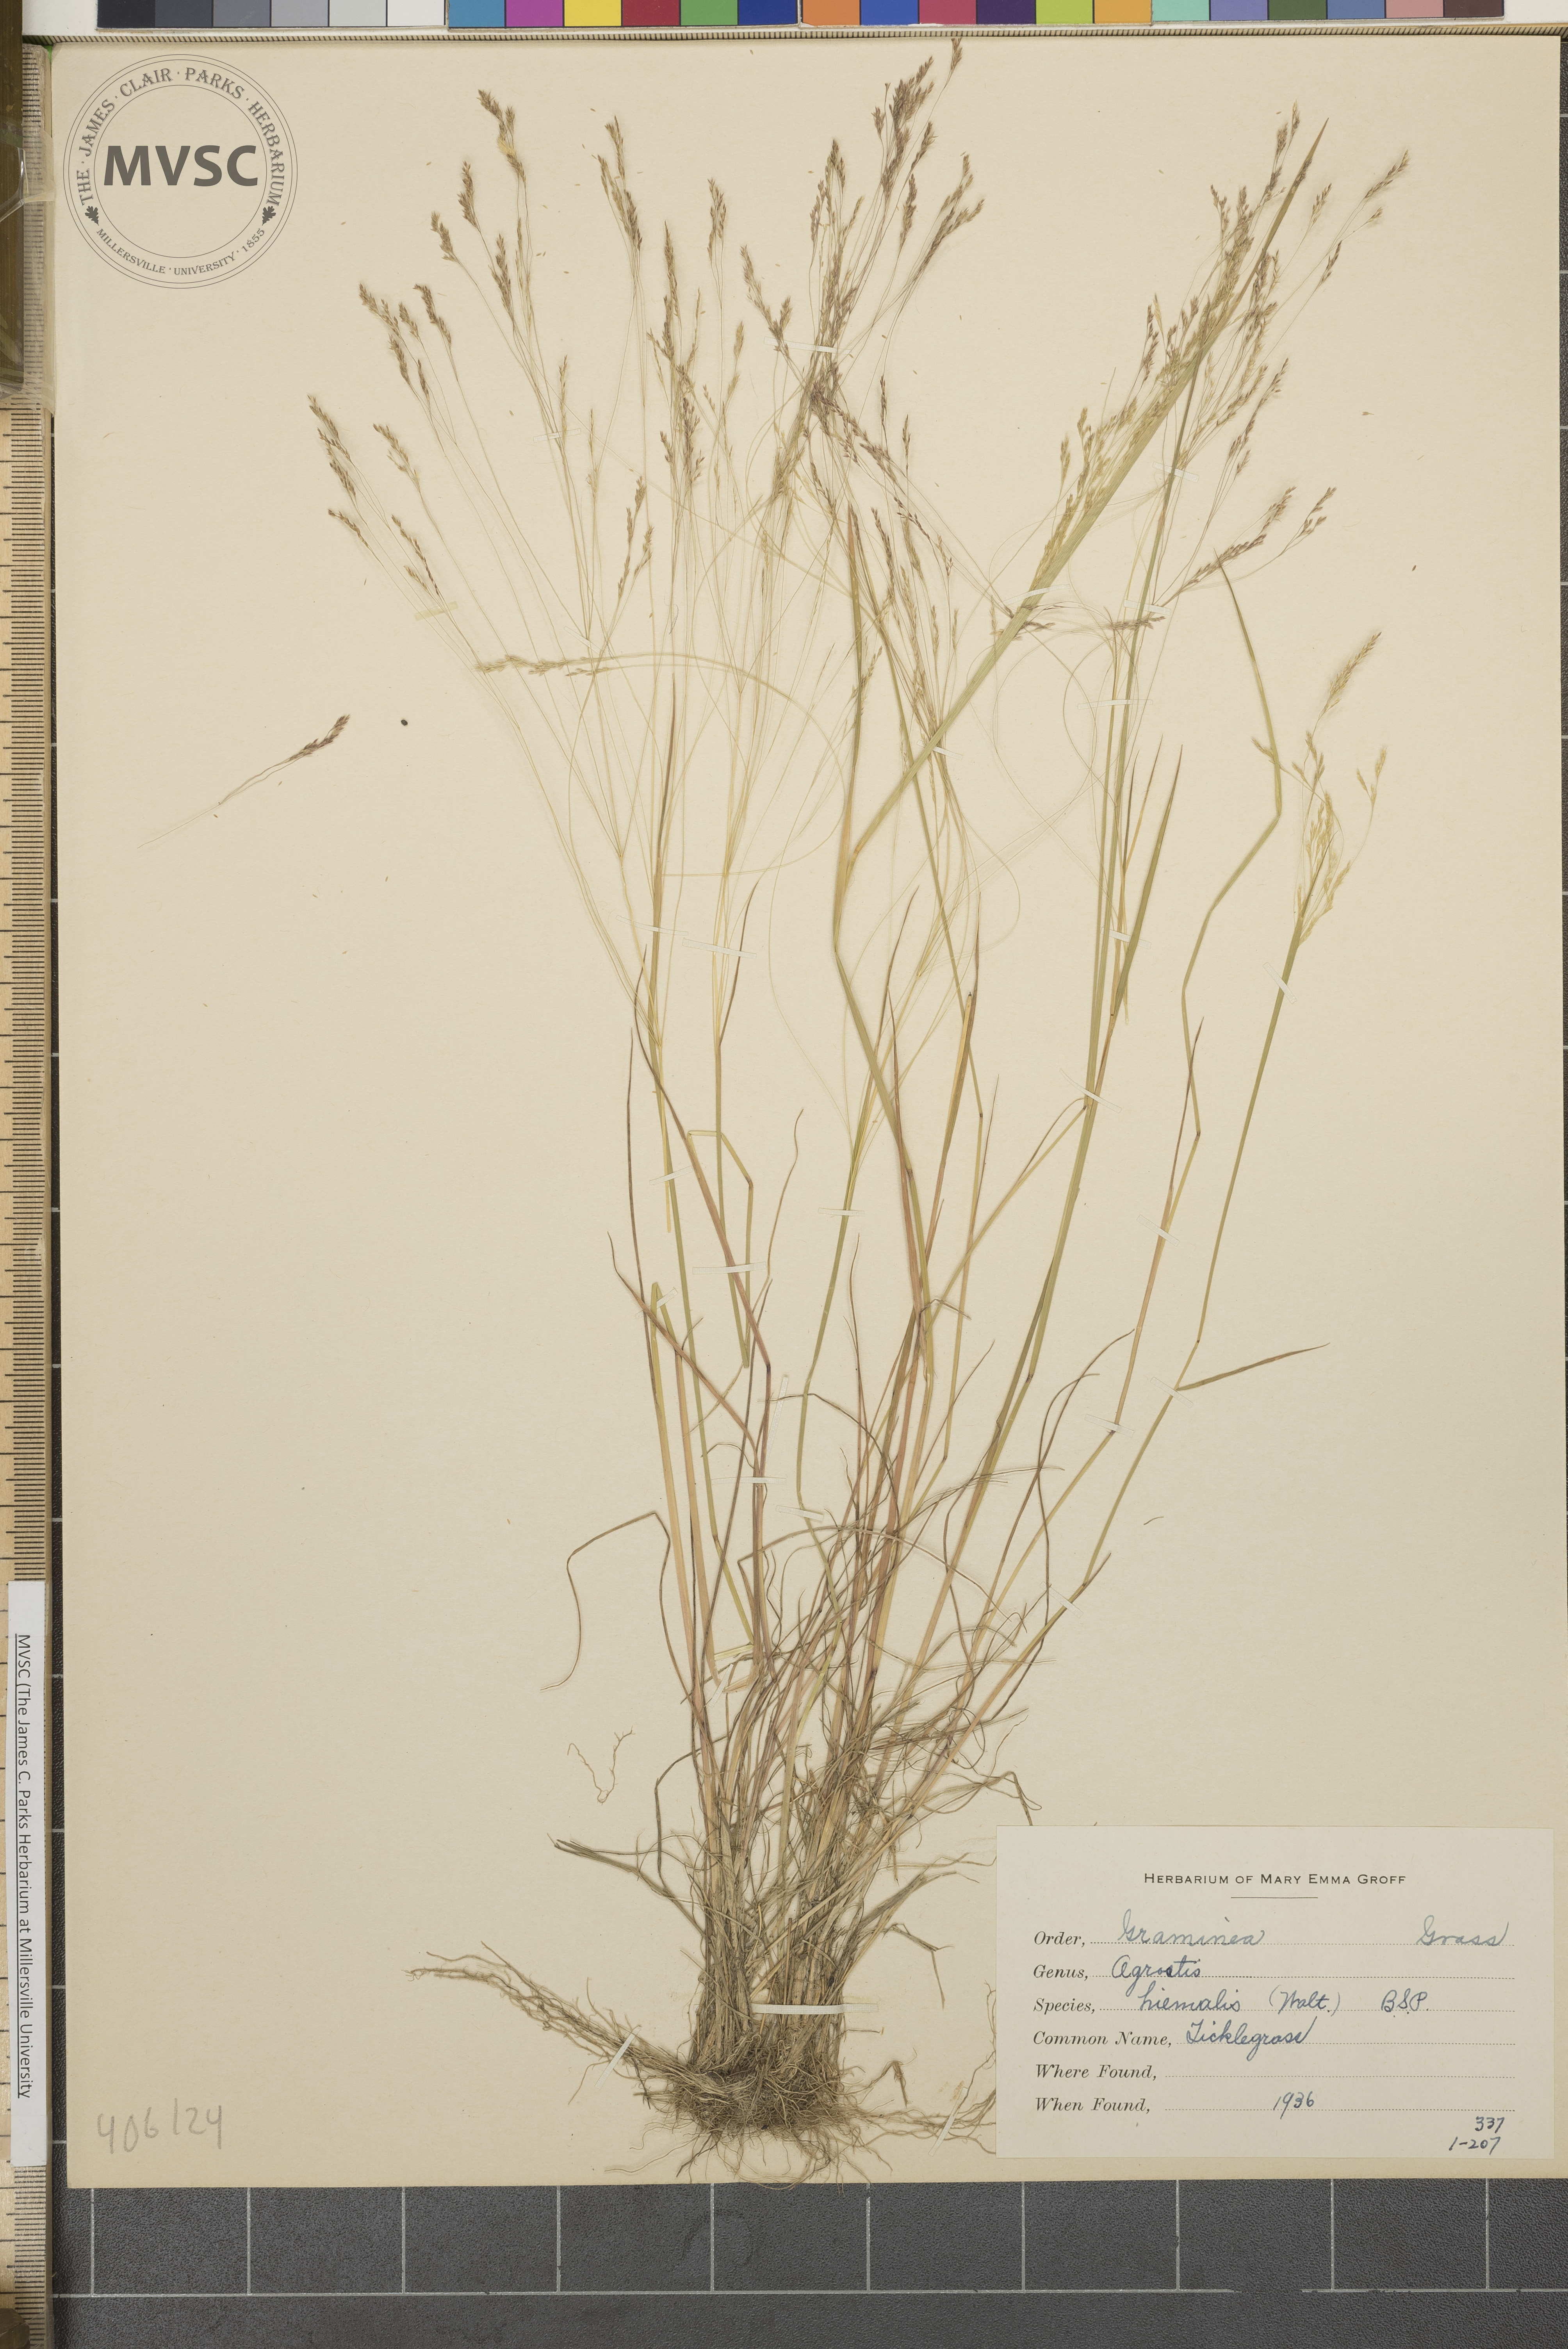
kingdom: Plantae
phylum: Tracheophyta
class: Liliopsida
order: Poales
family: Poaceae
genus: Agrostis
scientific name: Agrostis hyemalis
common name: Small bent
